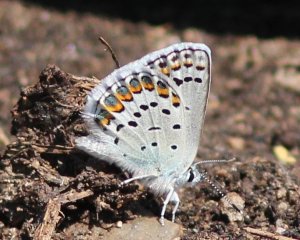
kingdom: Animalia
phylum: Arthropoda
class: Insecta
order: Lepidoptera
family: Lycaenidae
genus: Lycaeides
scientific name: Lycaeides melissa
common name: Melissa Blue
